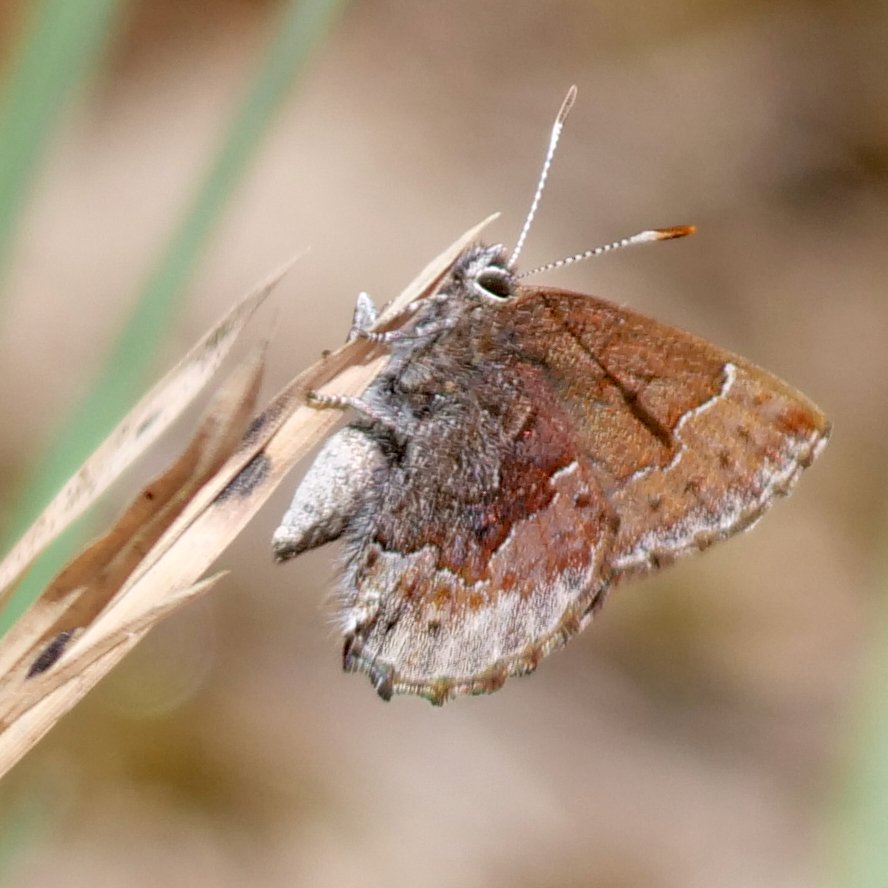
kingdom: Animalia
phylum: Arthropoda
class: Insecta
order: Lepidoptera
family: Lycaenidae
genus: Callophrys
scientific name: Callophrys polios
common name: Hoary Elfin
